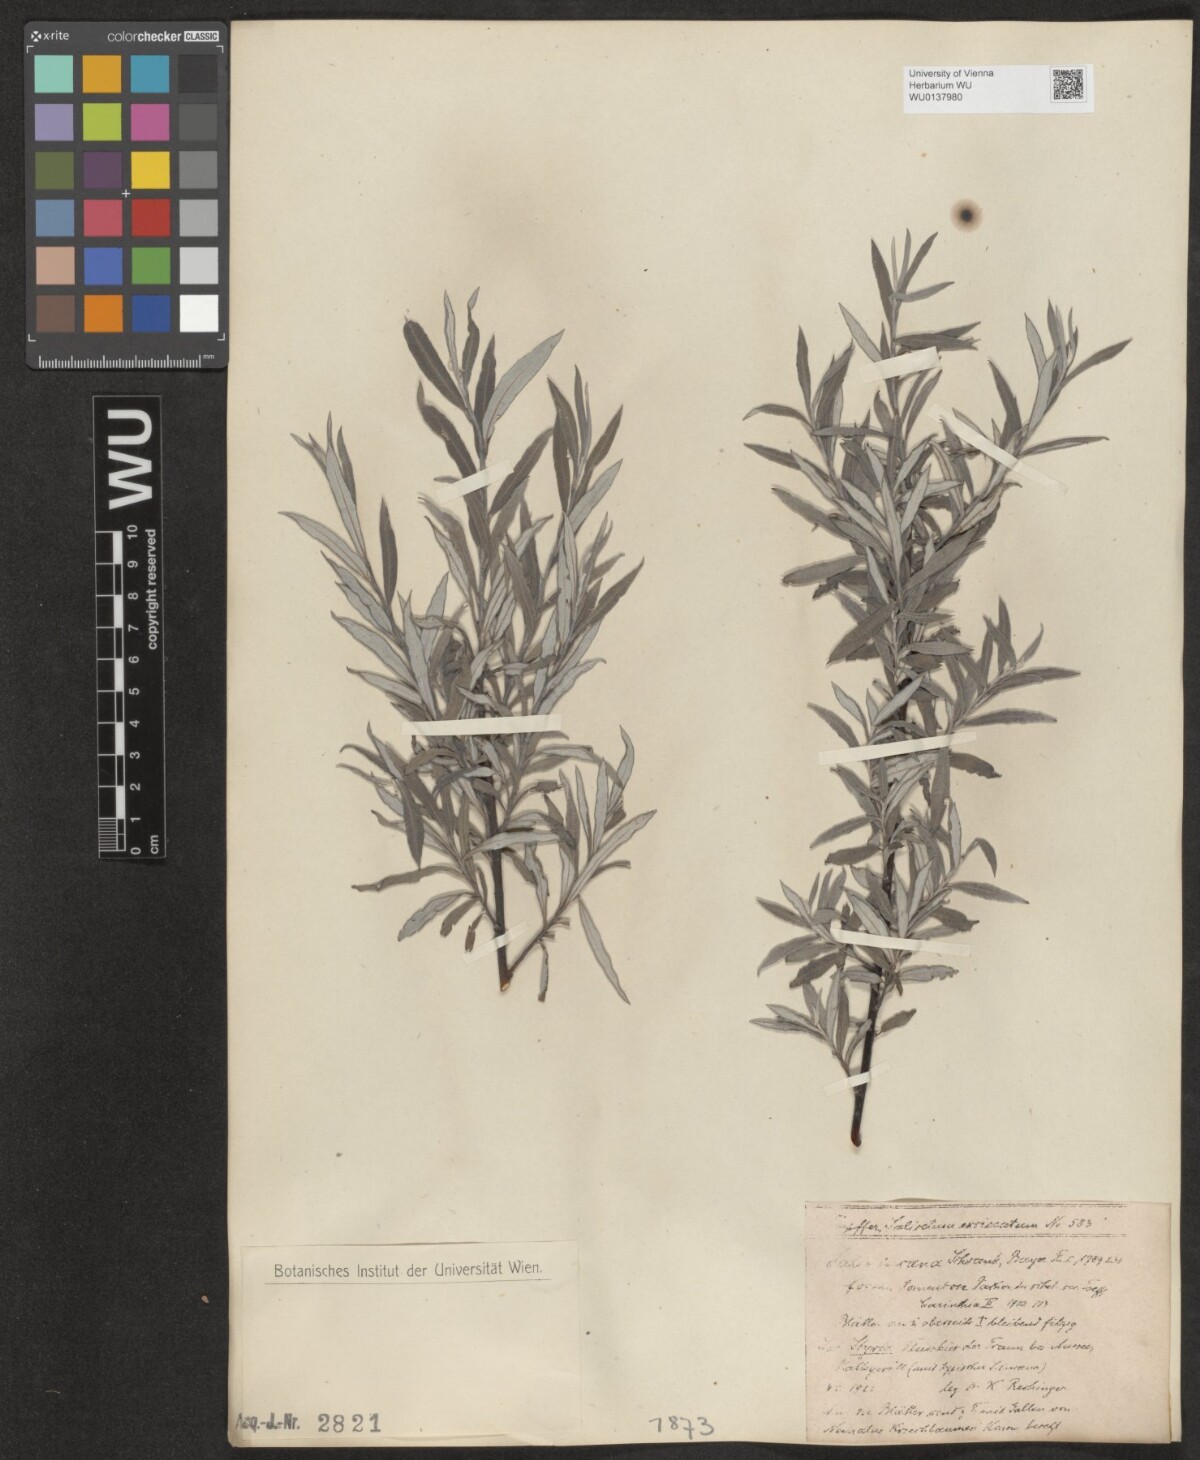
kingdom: Plantae
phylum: Tracheophyta
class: Magnoliopsida
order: Malpighiales
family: Salicaceae
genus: Salix
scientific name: Salix eleagnos
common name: Elaeagnus willow
